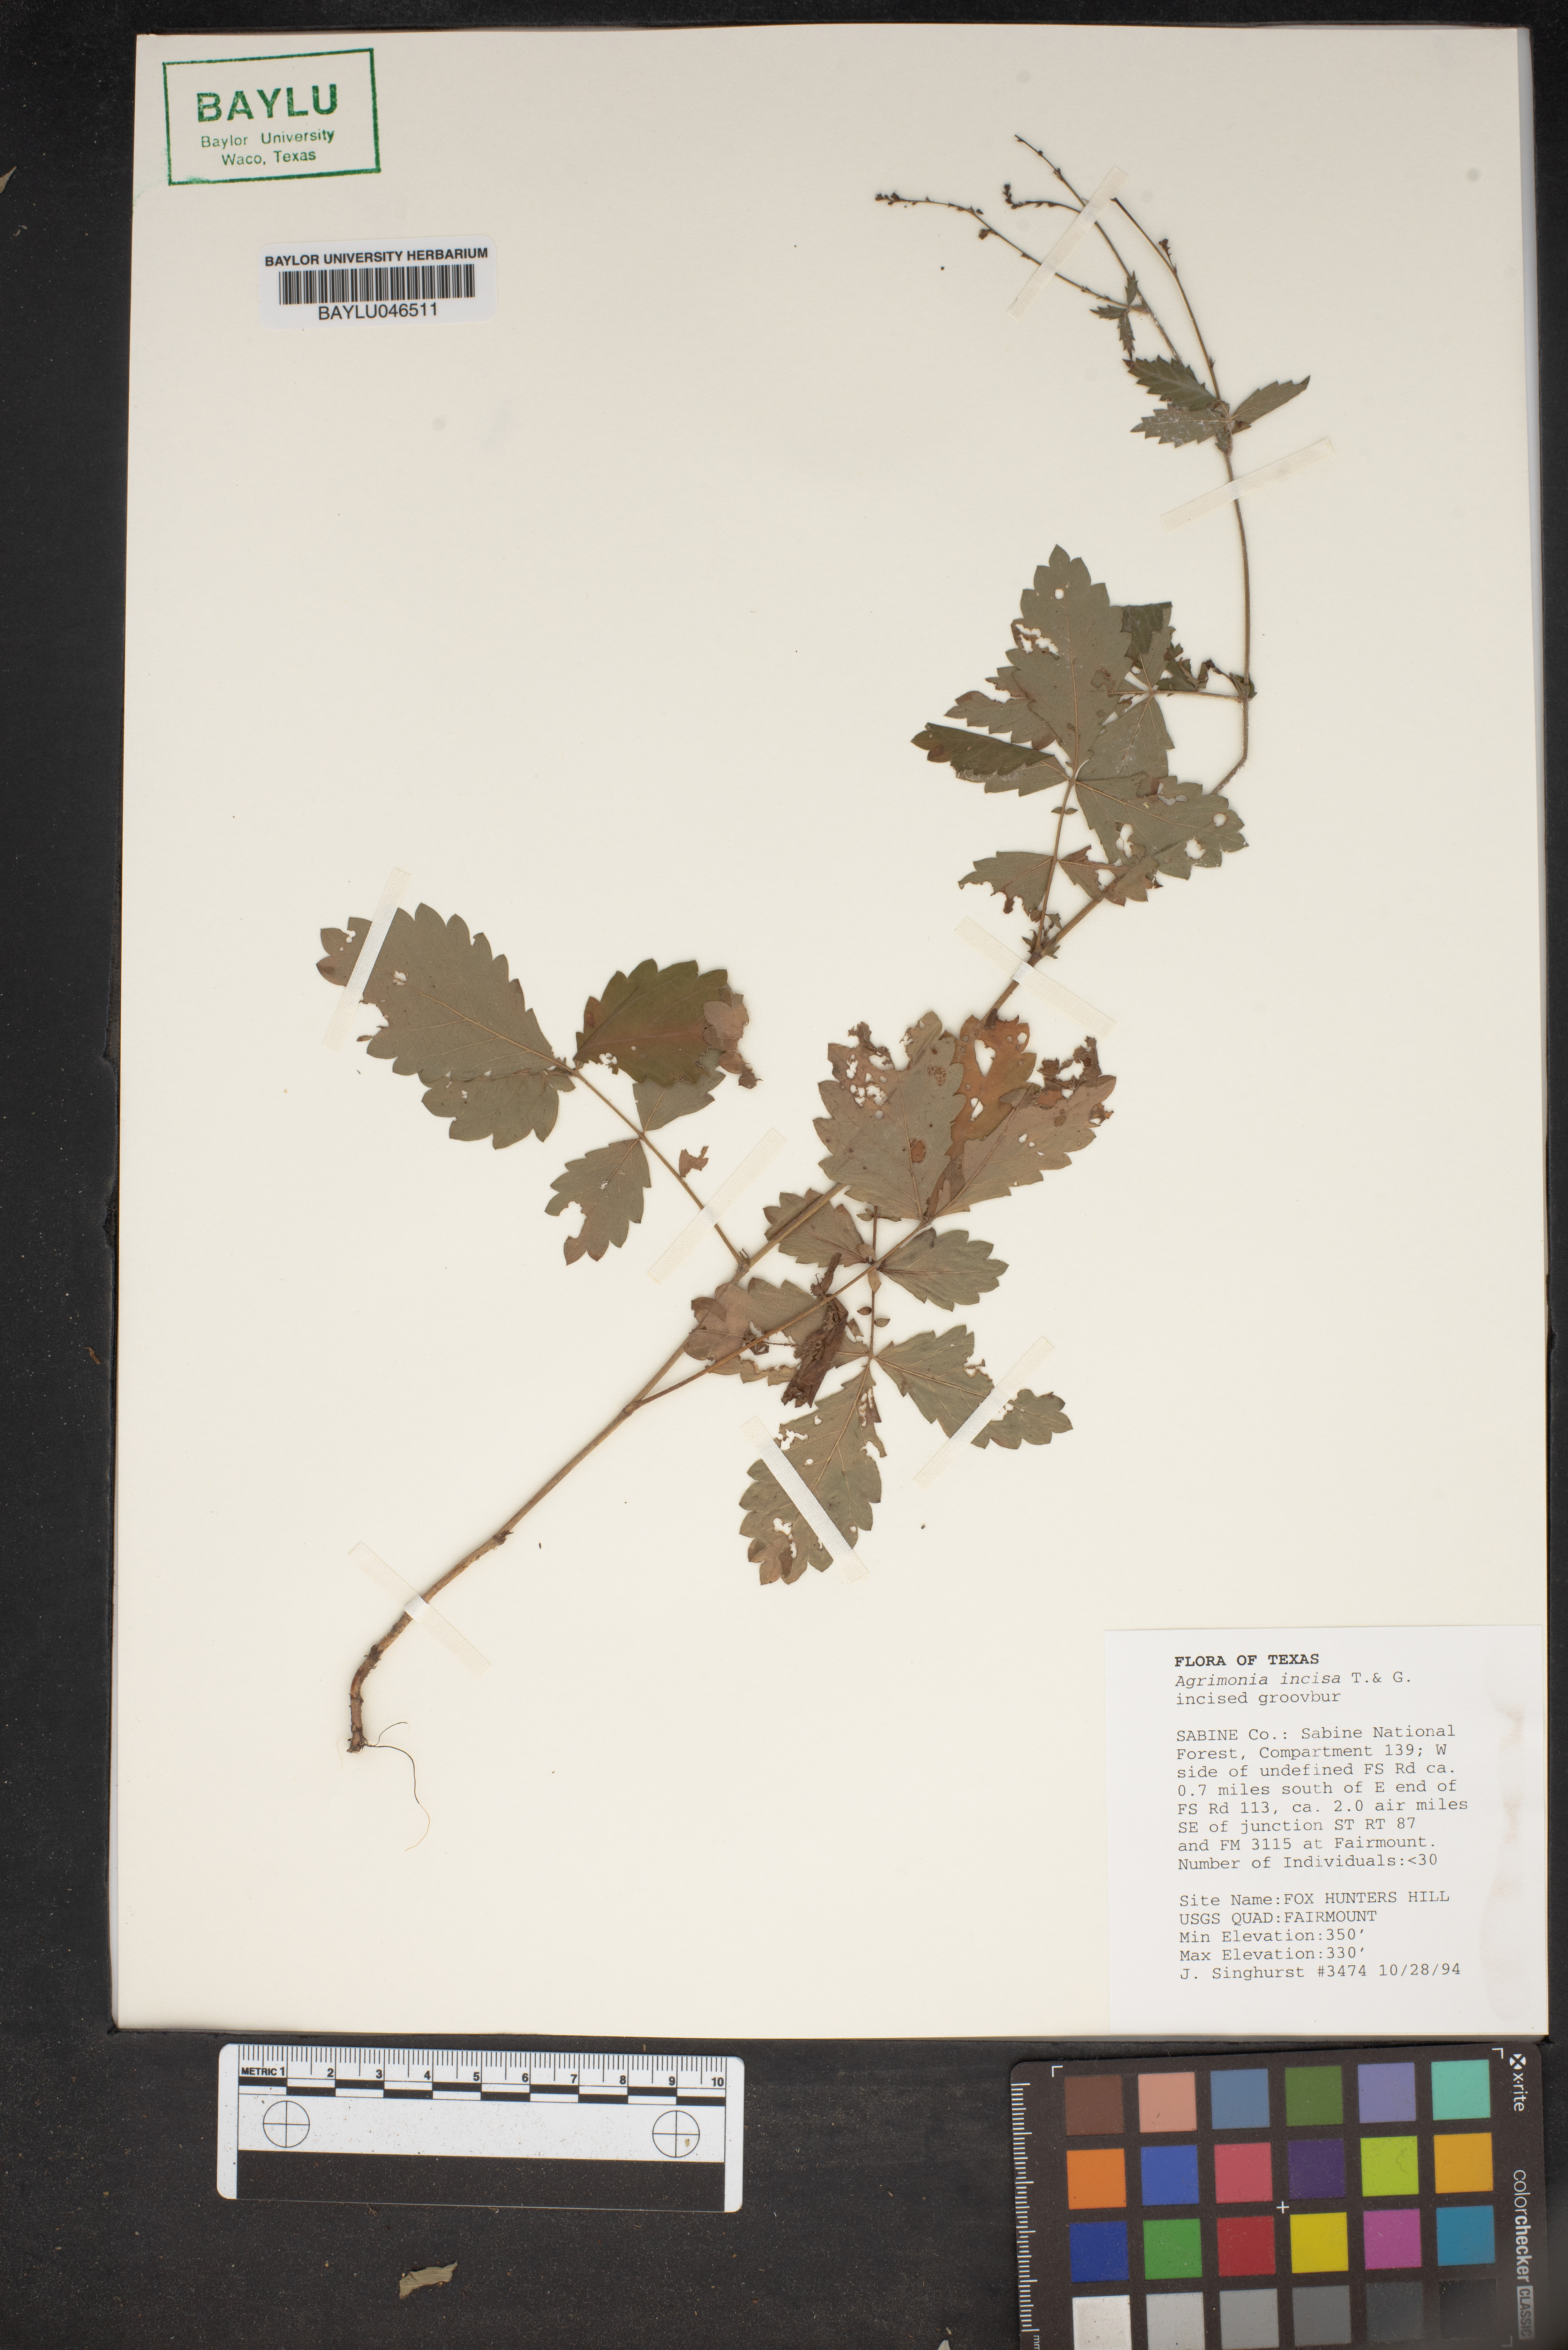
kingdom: Plantae
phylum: Tracheophyta
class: Magnoliopsida
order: Rosales
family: Rosaceae
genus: Agrimonia
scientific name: Agrimonia incisa
